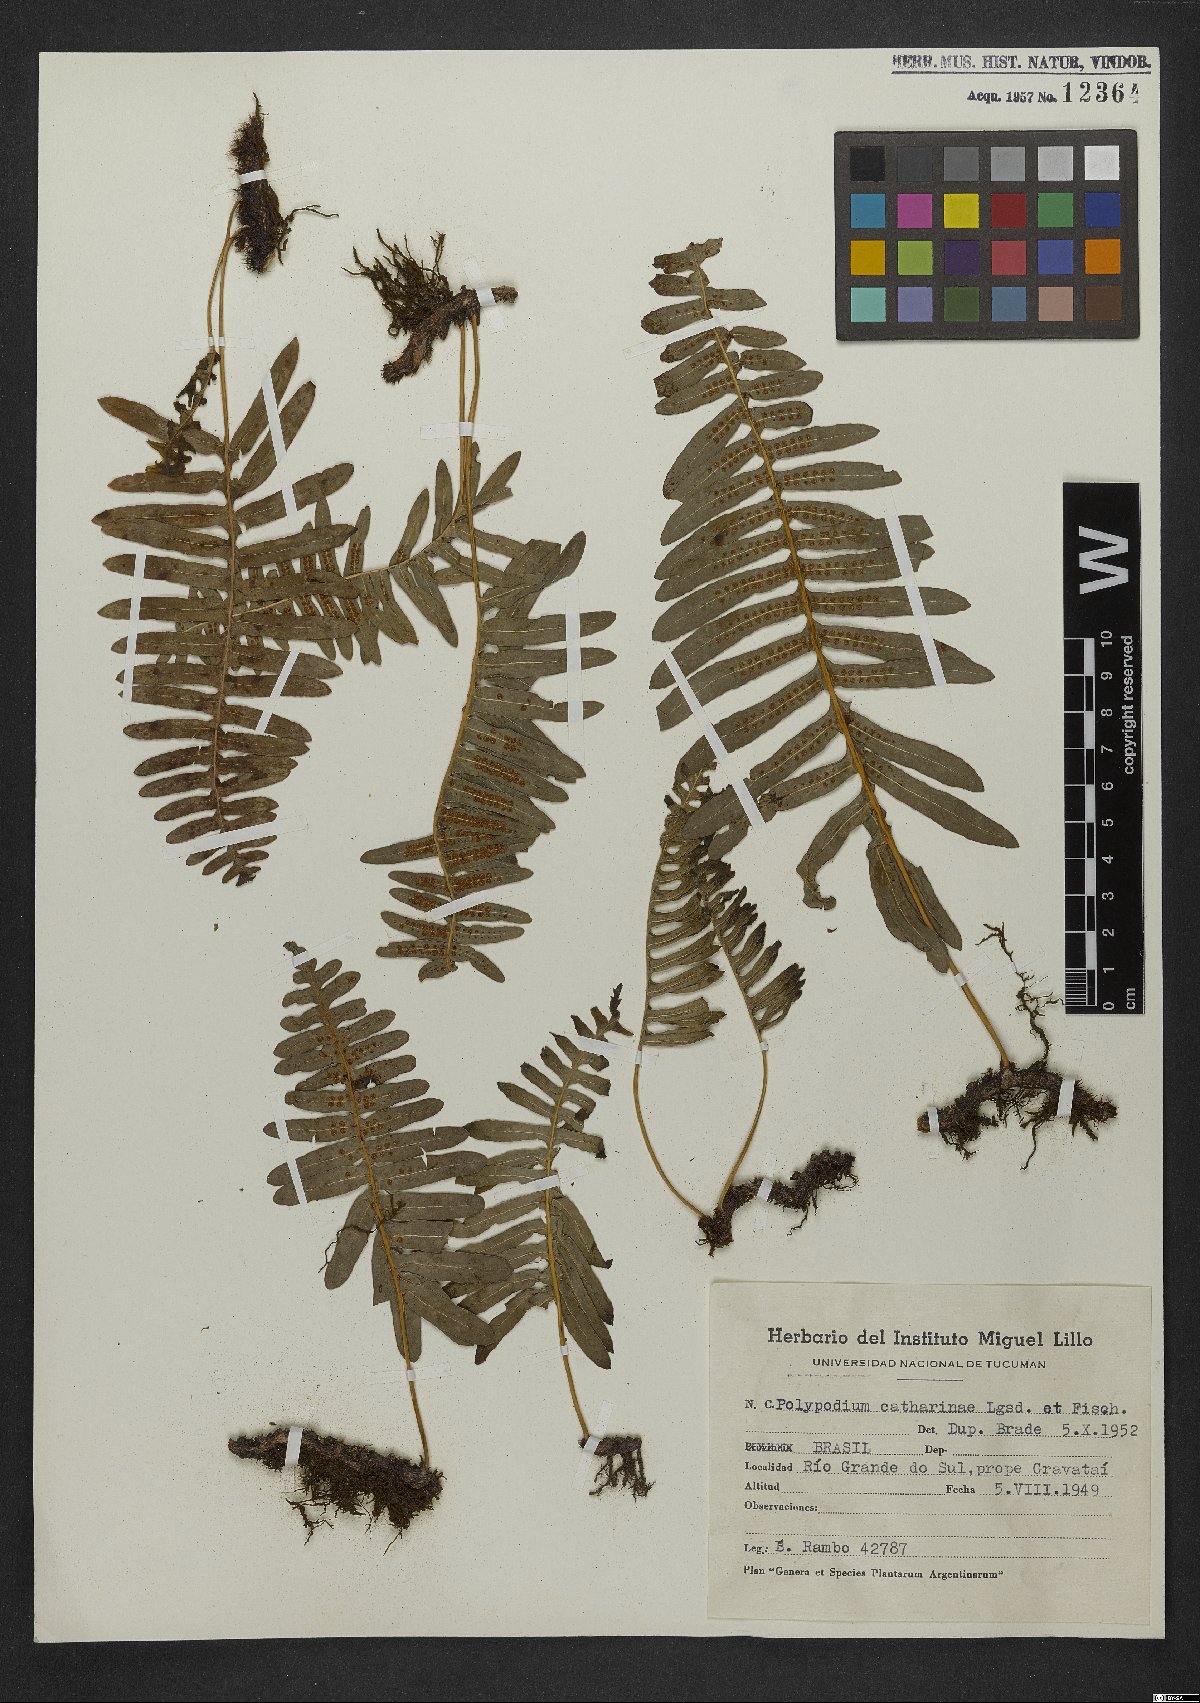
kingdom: Plantae
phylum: Tracheophyta
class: Polypodiopsida
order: Polypodiales
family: Polypodiaceae
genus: Serpocaulon
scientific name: Serpocaulon catharinae
